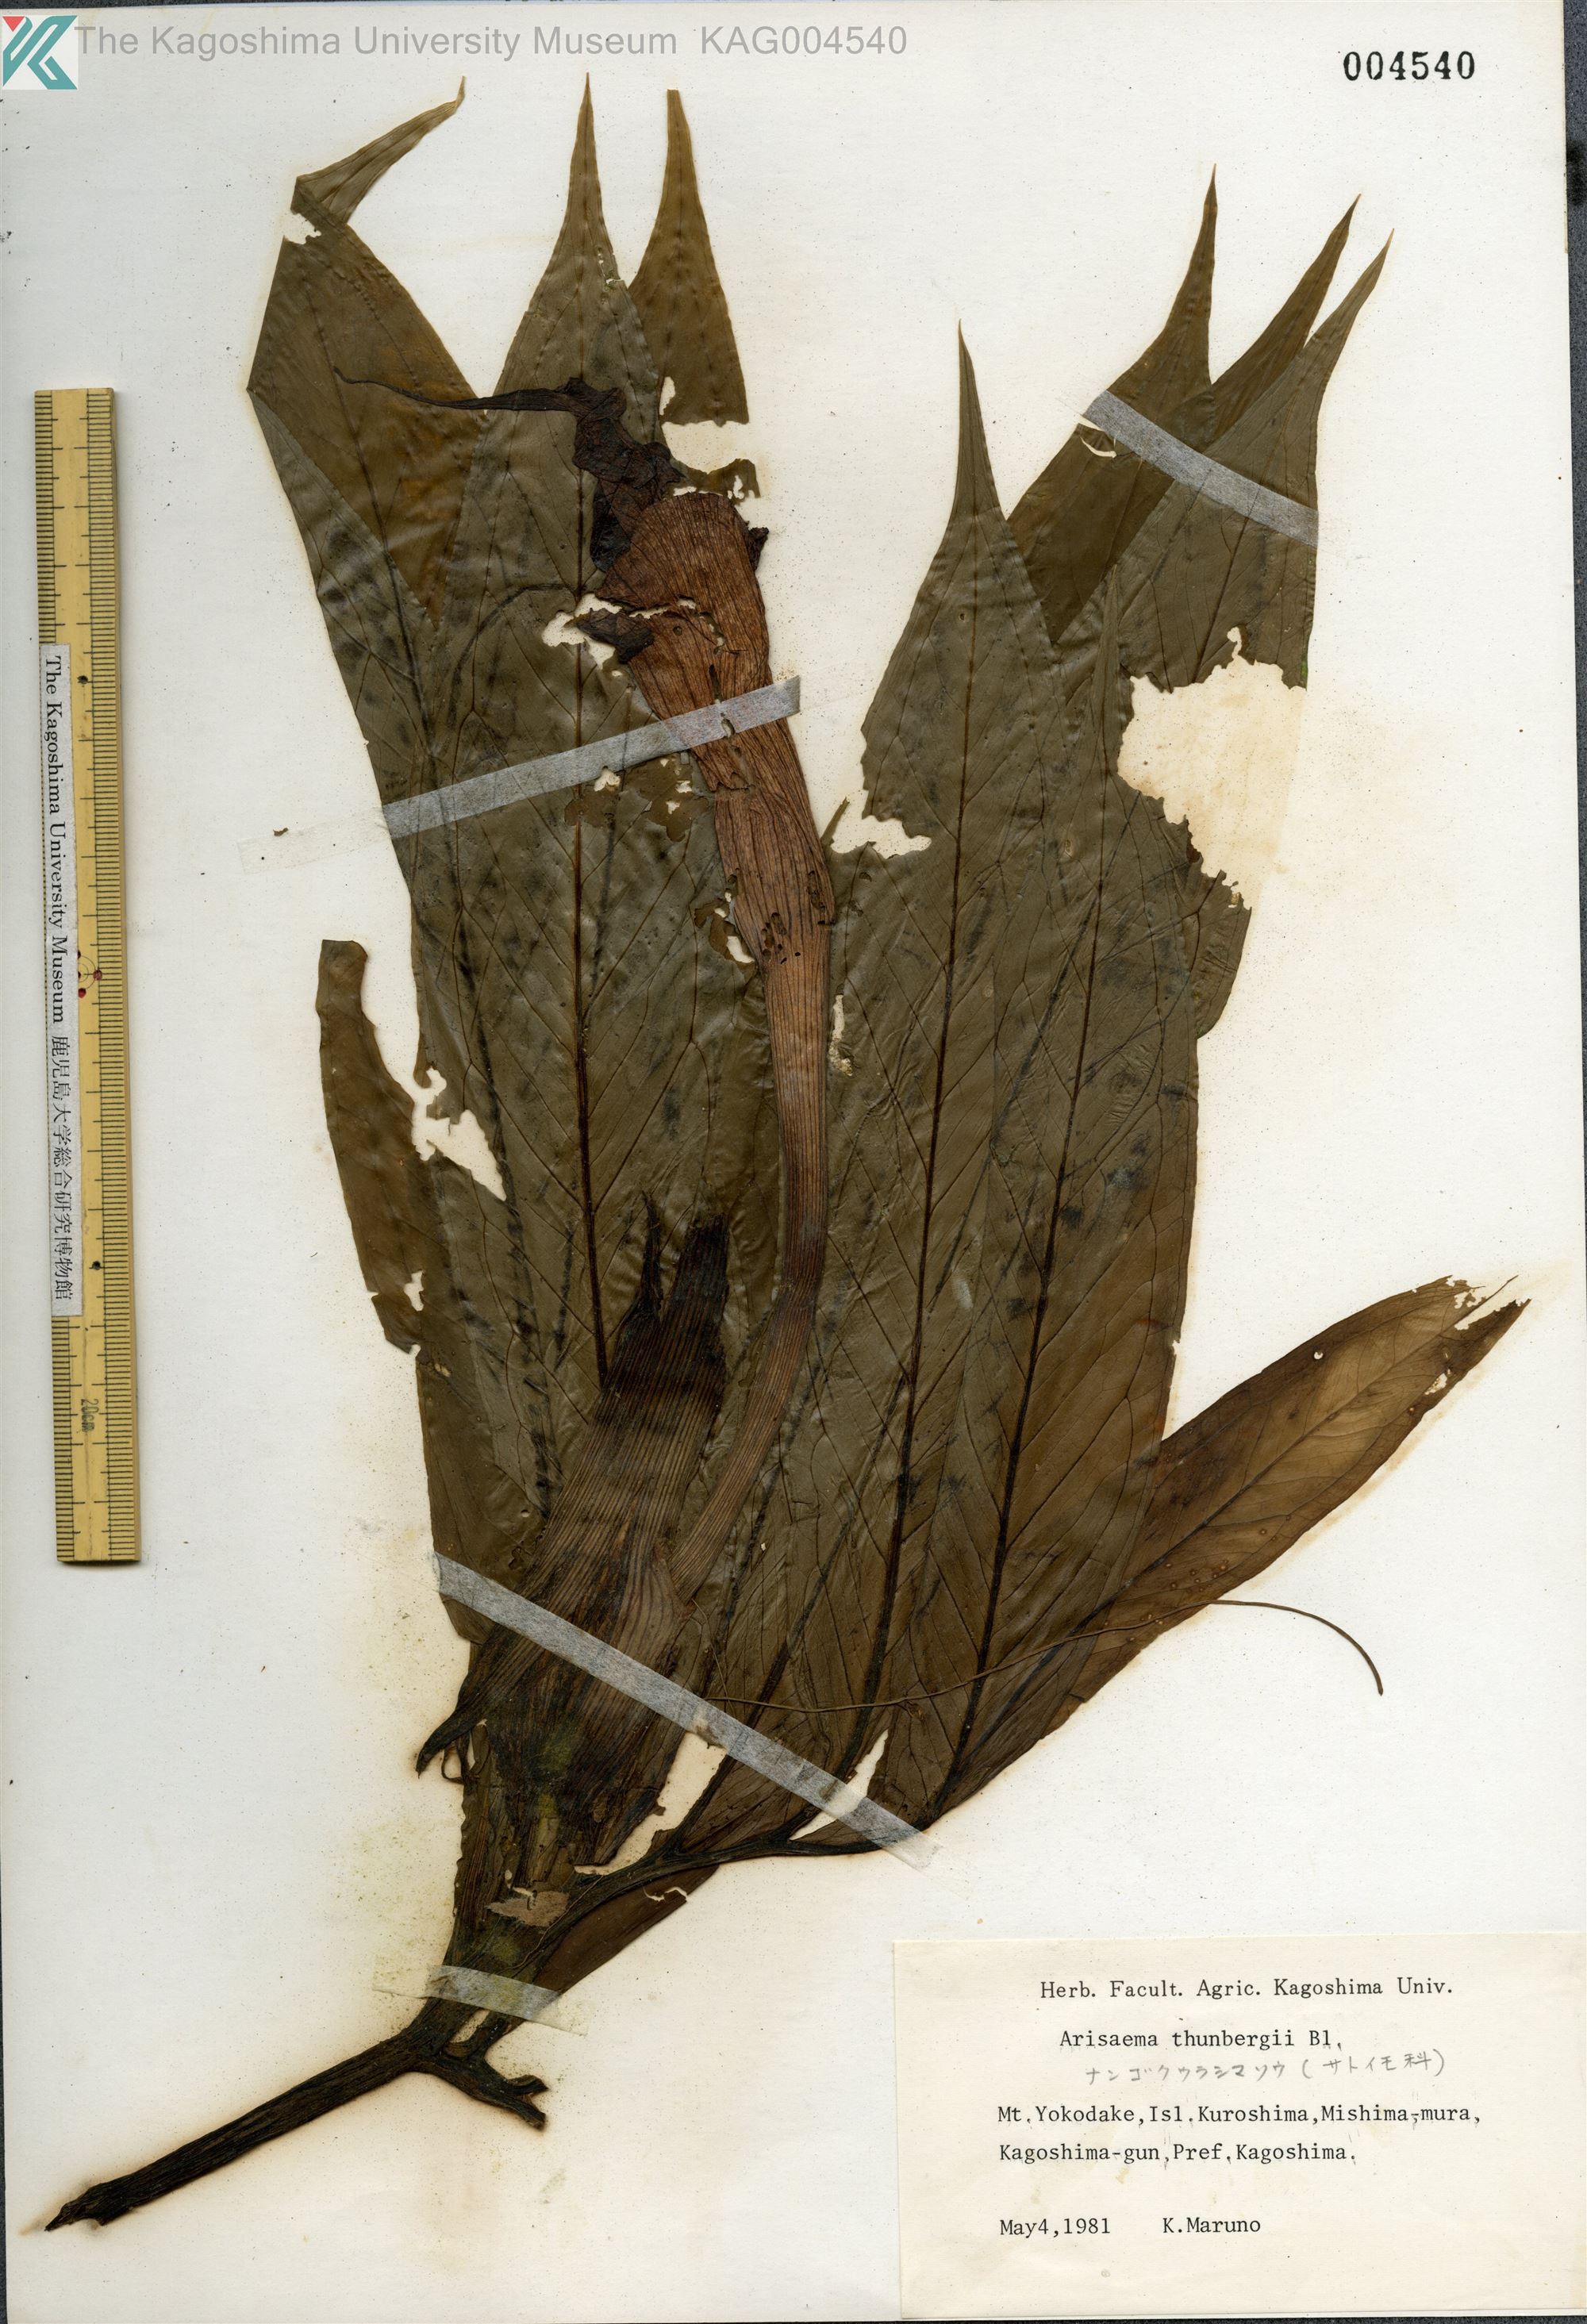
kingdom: Plantae
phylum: Tracheophyta
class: Liliopsida
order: Alismatales
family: Araceae
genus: Arisaema
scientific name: Arisaema thunbergii
